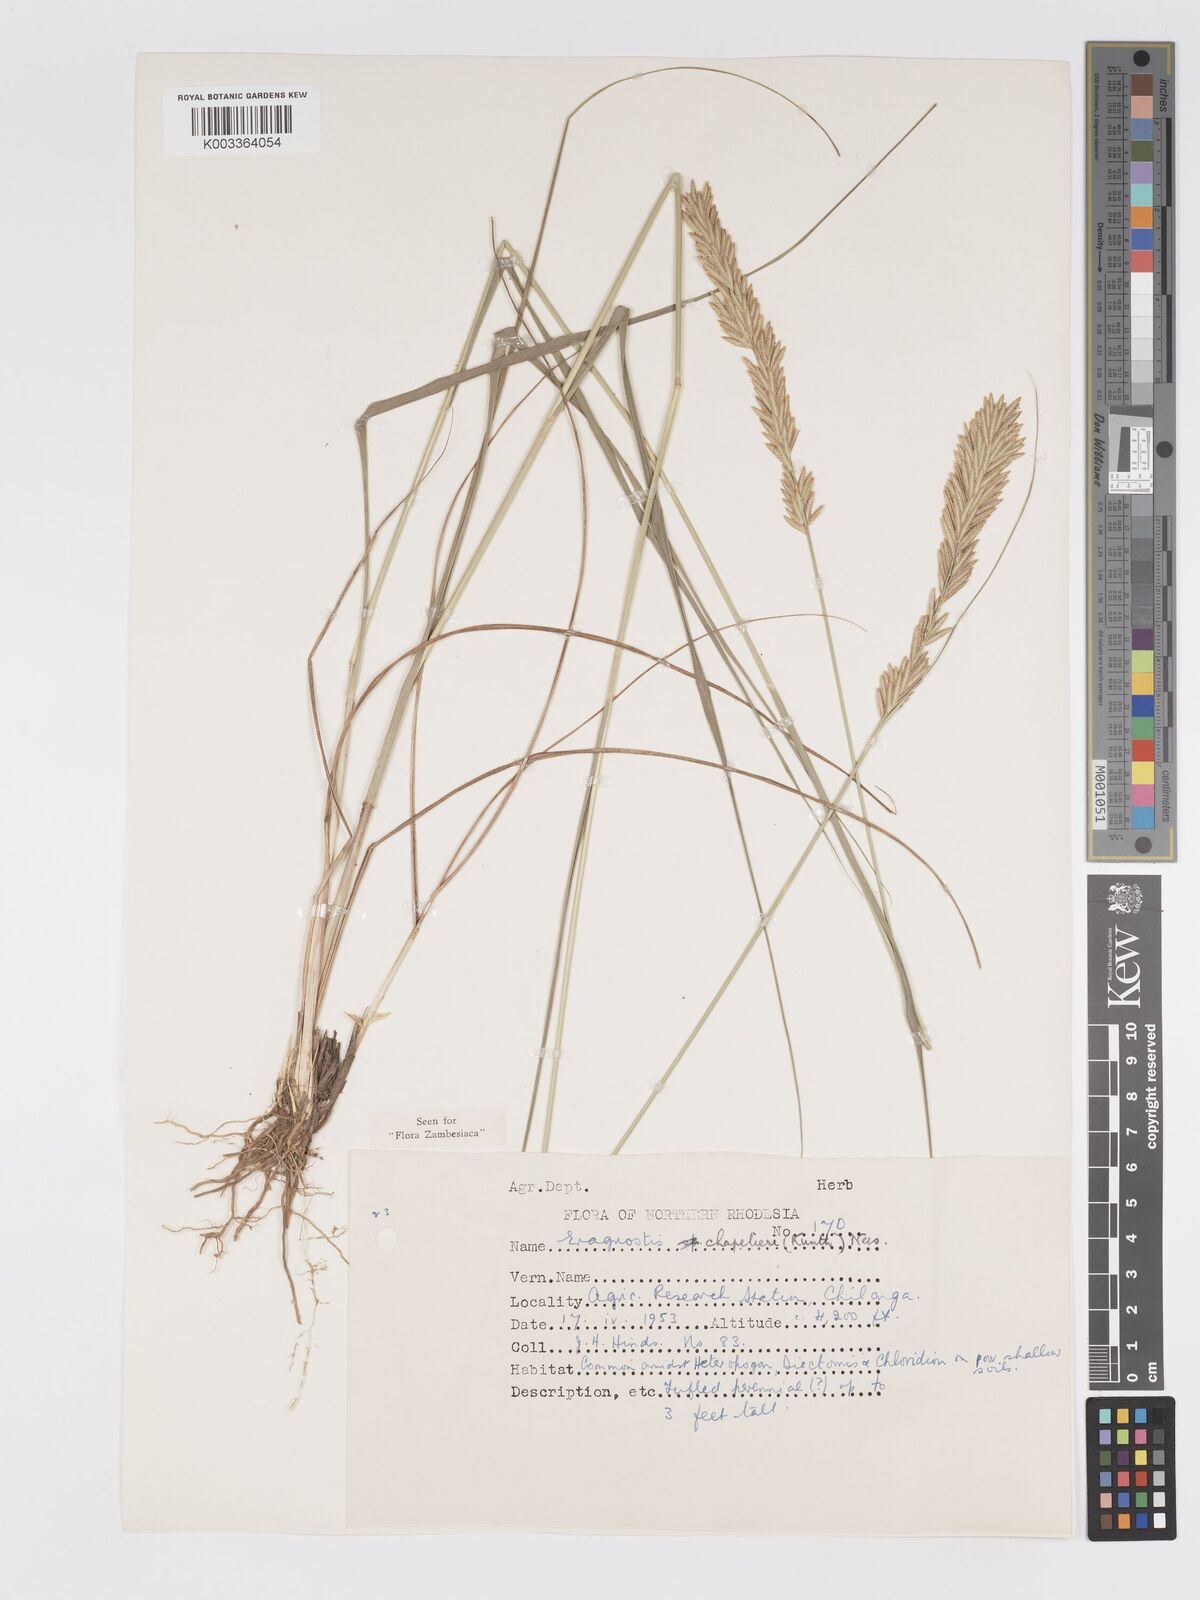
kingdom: Plantae
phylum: Tracheophyta
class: Liliopsida
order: Poales
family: Poaceae
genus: Eragrostis
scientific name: Eragrostis chapelieri
